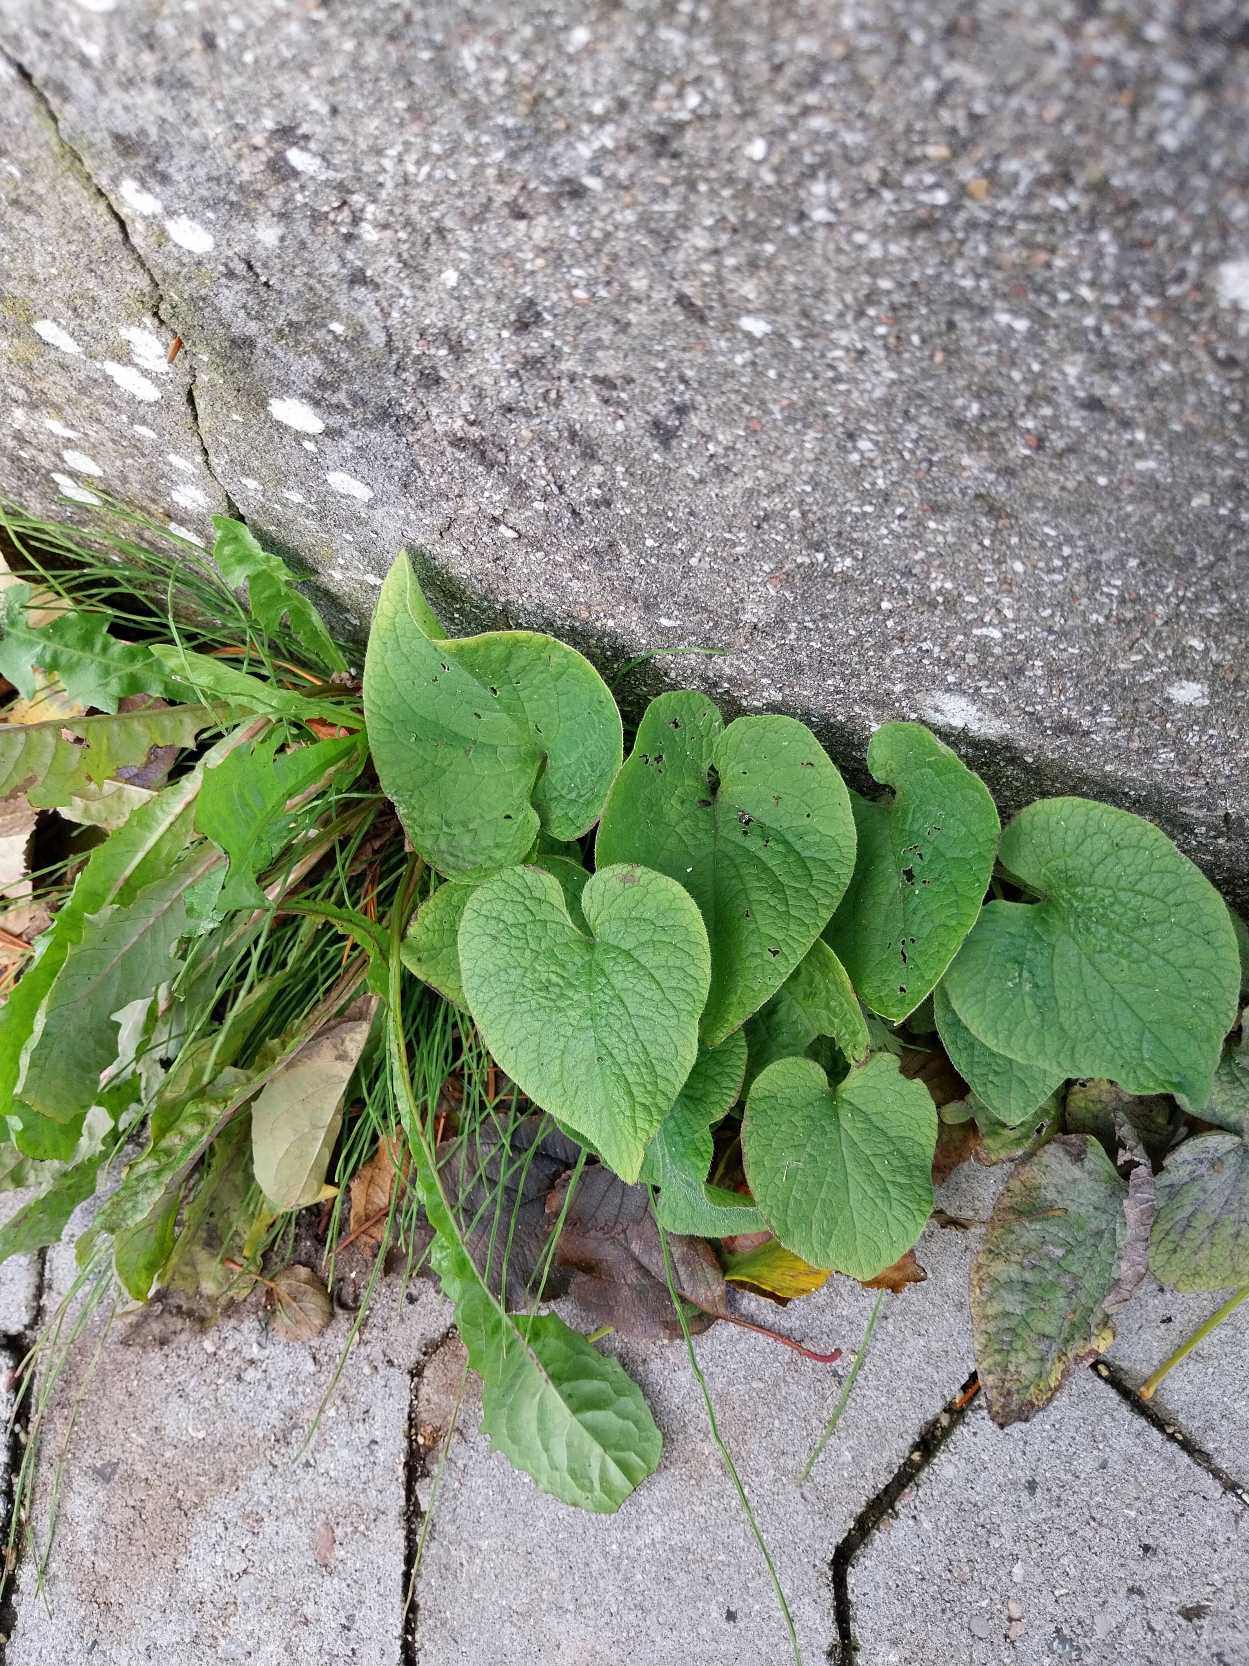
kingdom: Plantae
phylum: Tracheophyta
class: Magnoliopsida
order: Boraginales
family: Boraginaceae
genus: Brunnera
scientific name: Brunnera macrophylla
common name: Kærmindesøster
